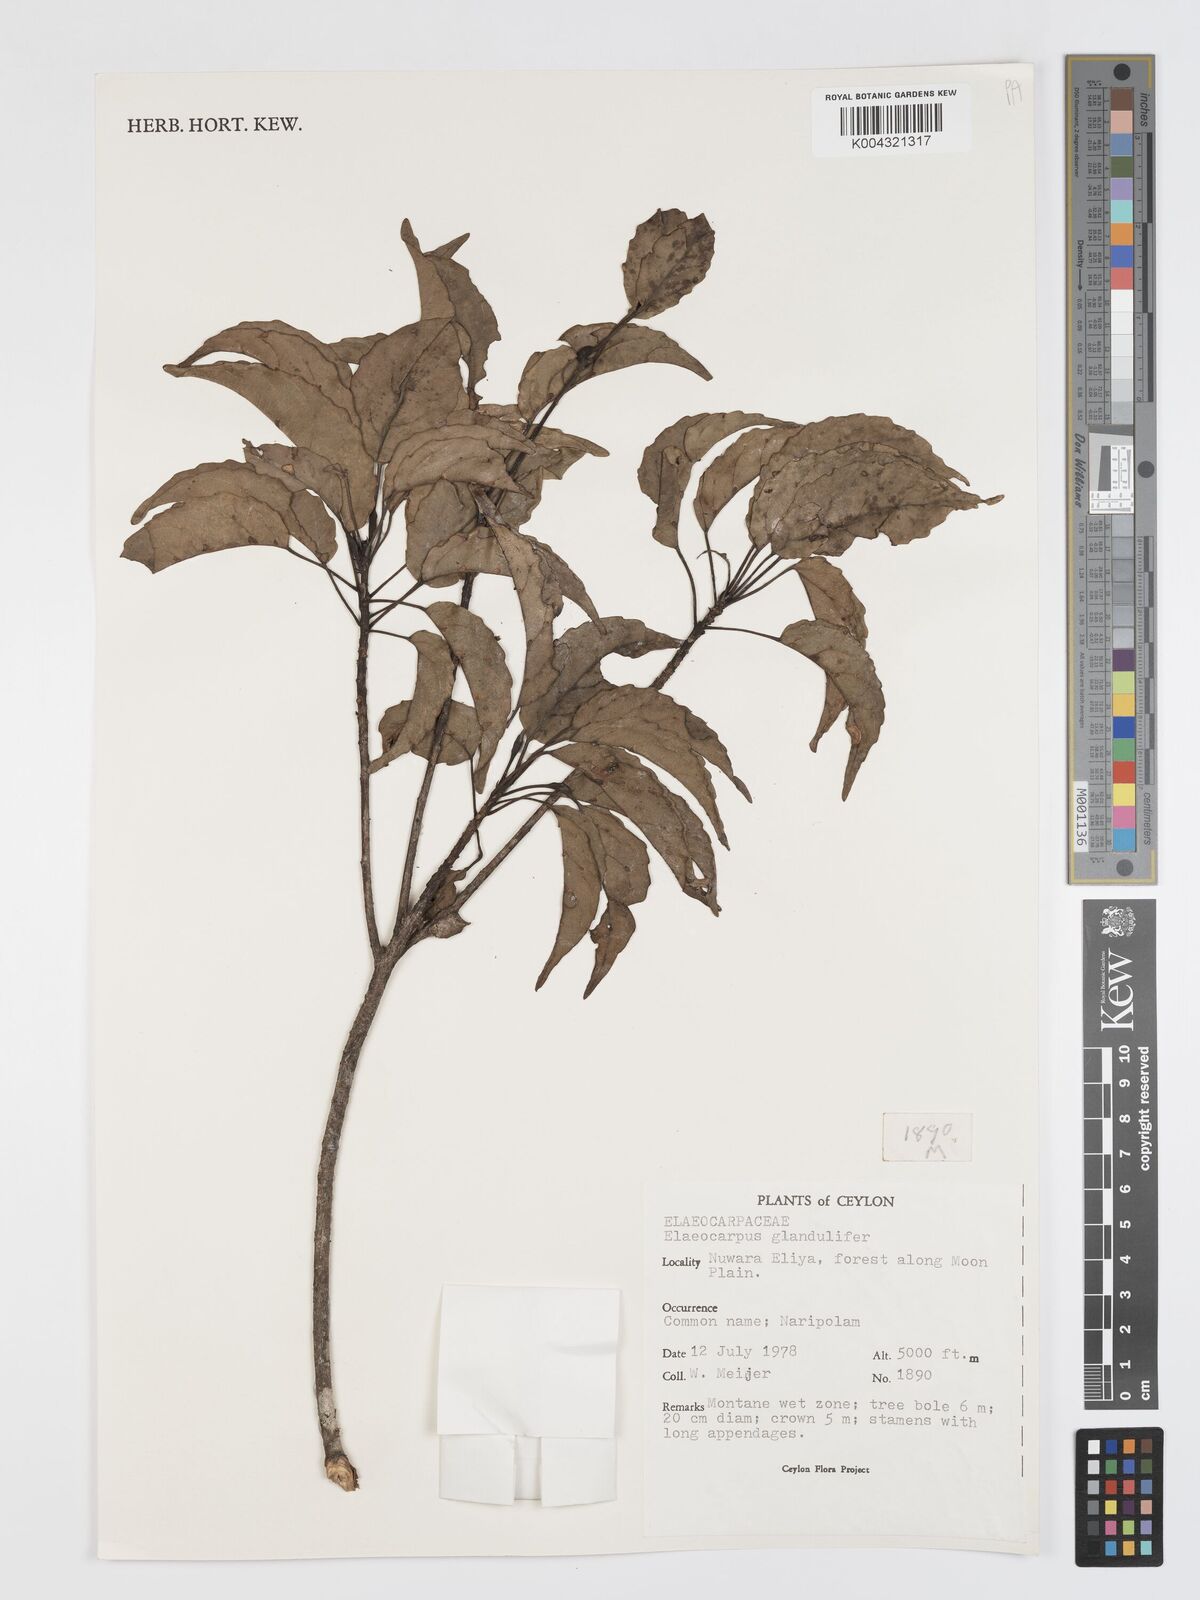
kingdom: Plantae
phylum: Tracheophyta
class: Magnoliopsida
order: Oxalidales
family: Elaeocarpaceae
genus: Elaeocarpus
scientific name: Elaeocarpus glandulifer
